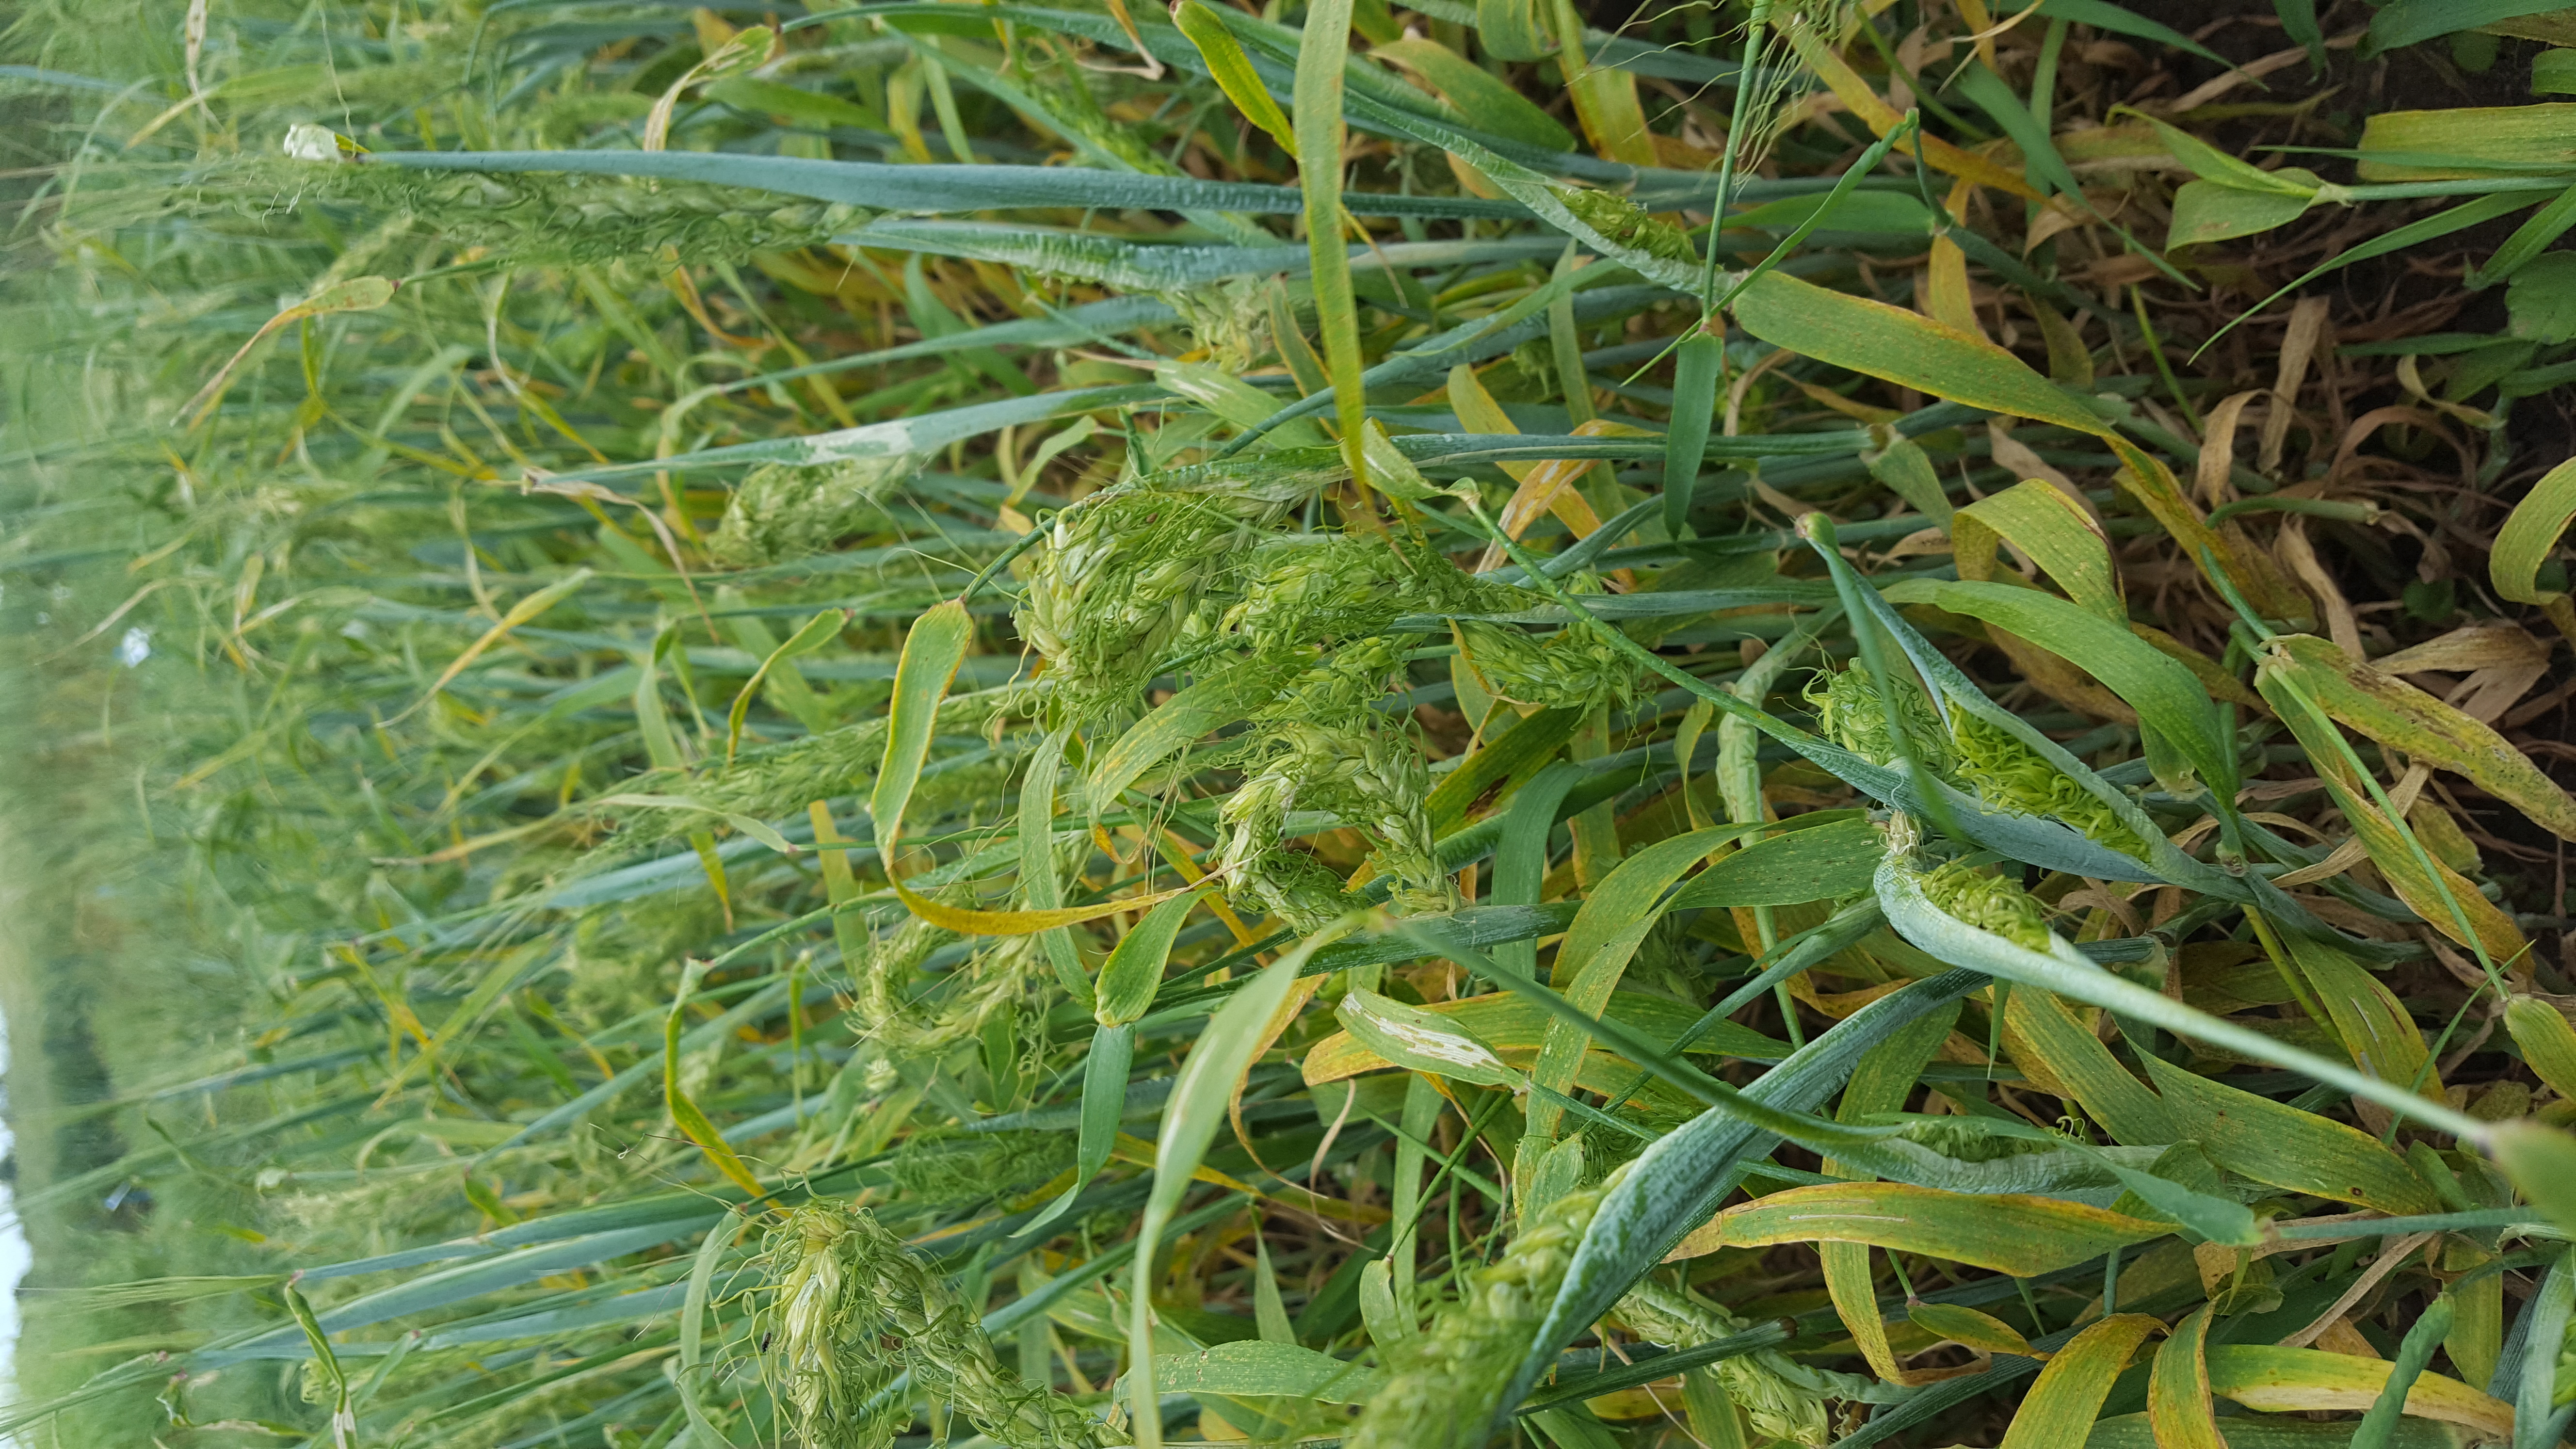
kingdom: Plantae
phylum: Tracheophyta
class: Liliopsida
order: Poales
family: Poaceae
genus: Hordeum
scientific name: Hordeum vulgare
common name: Common barley
